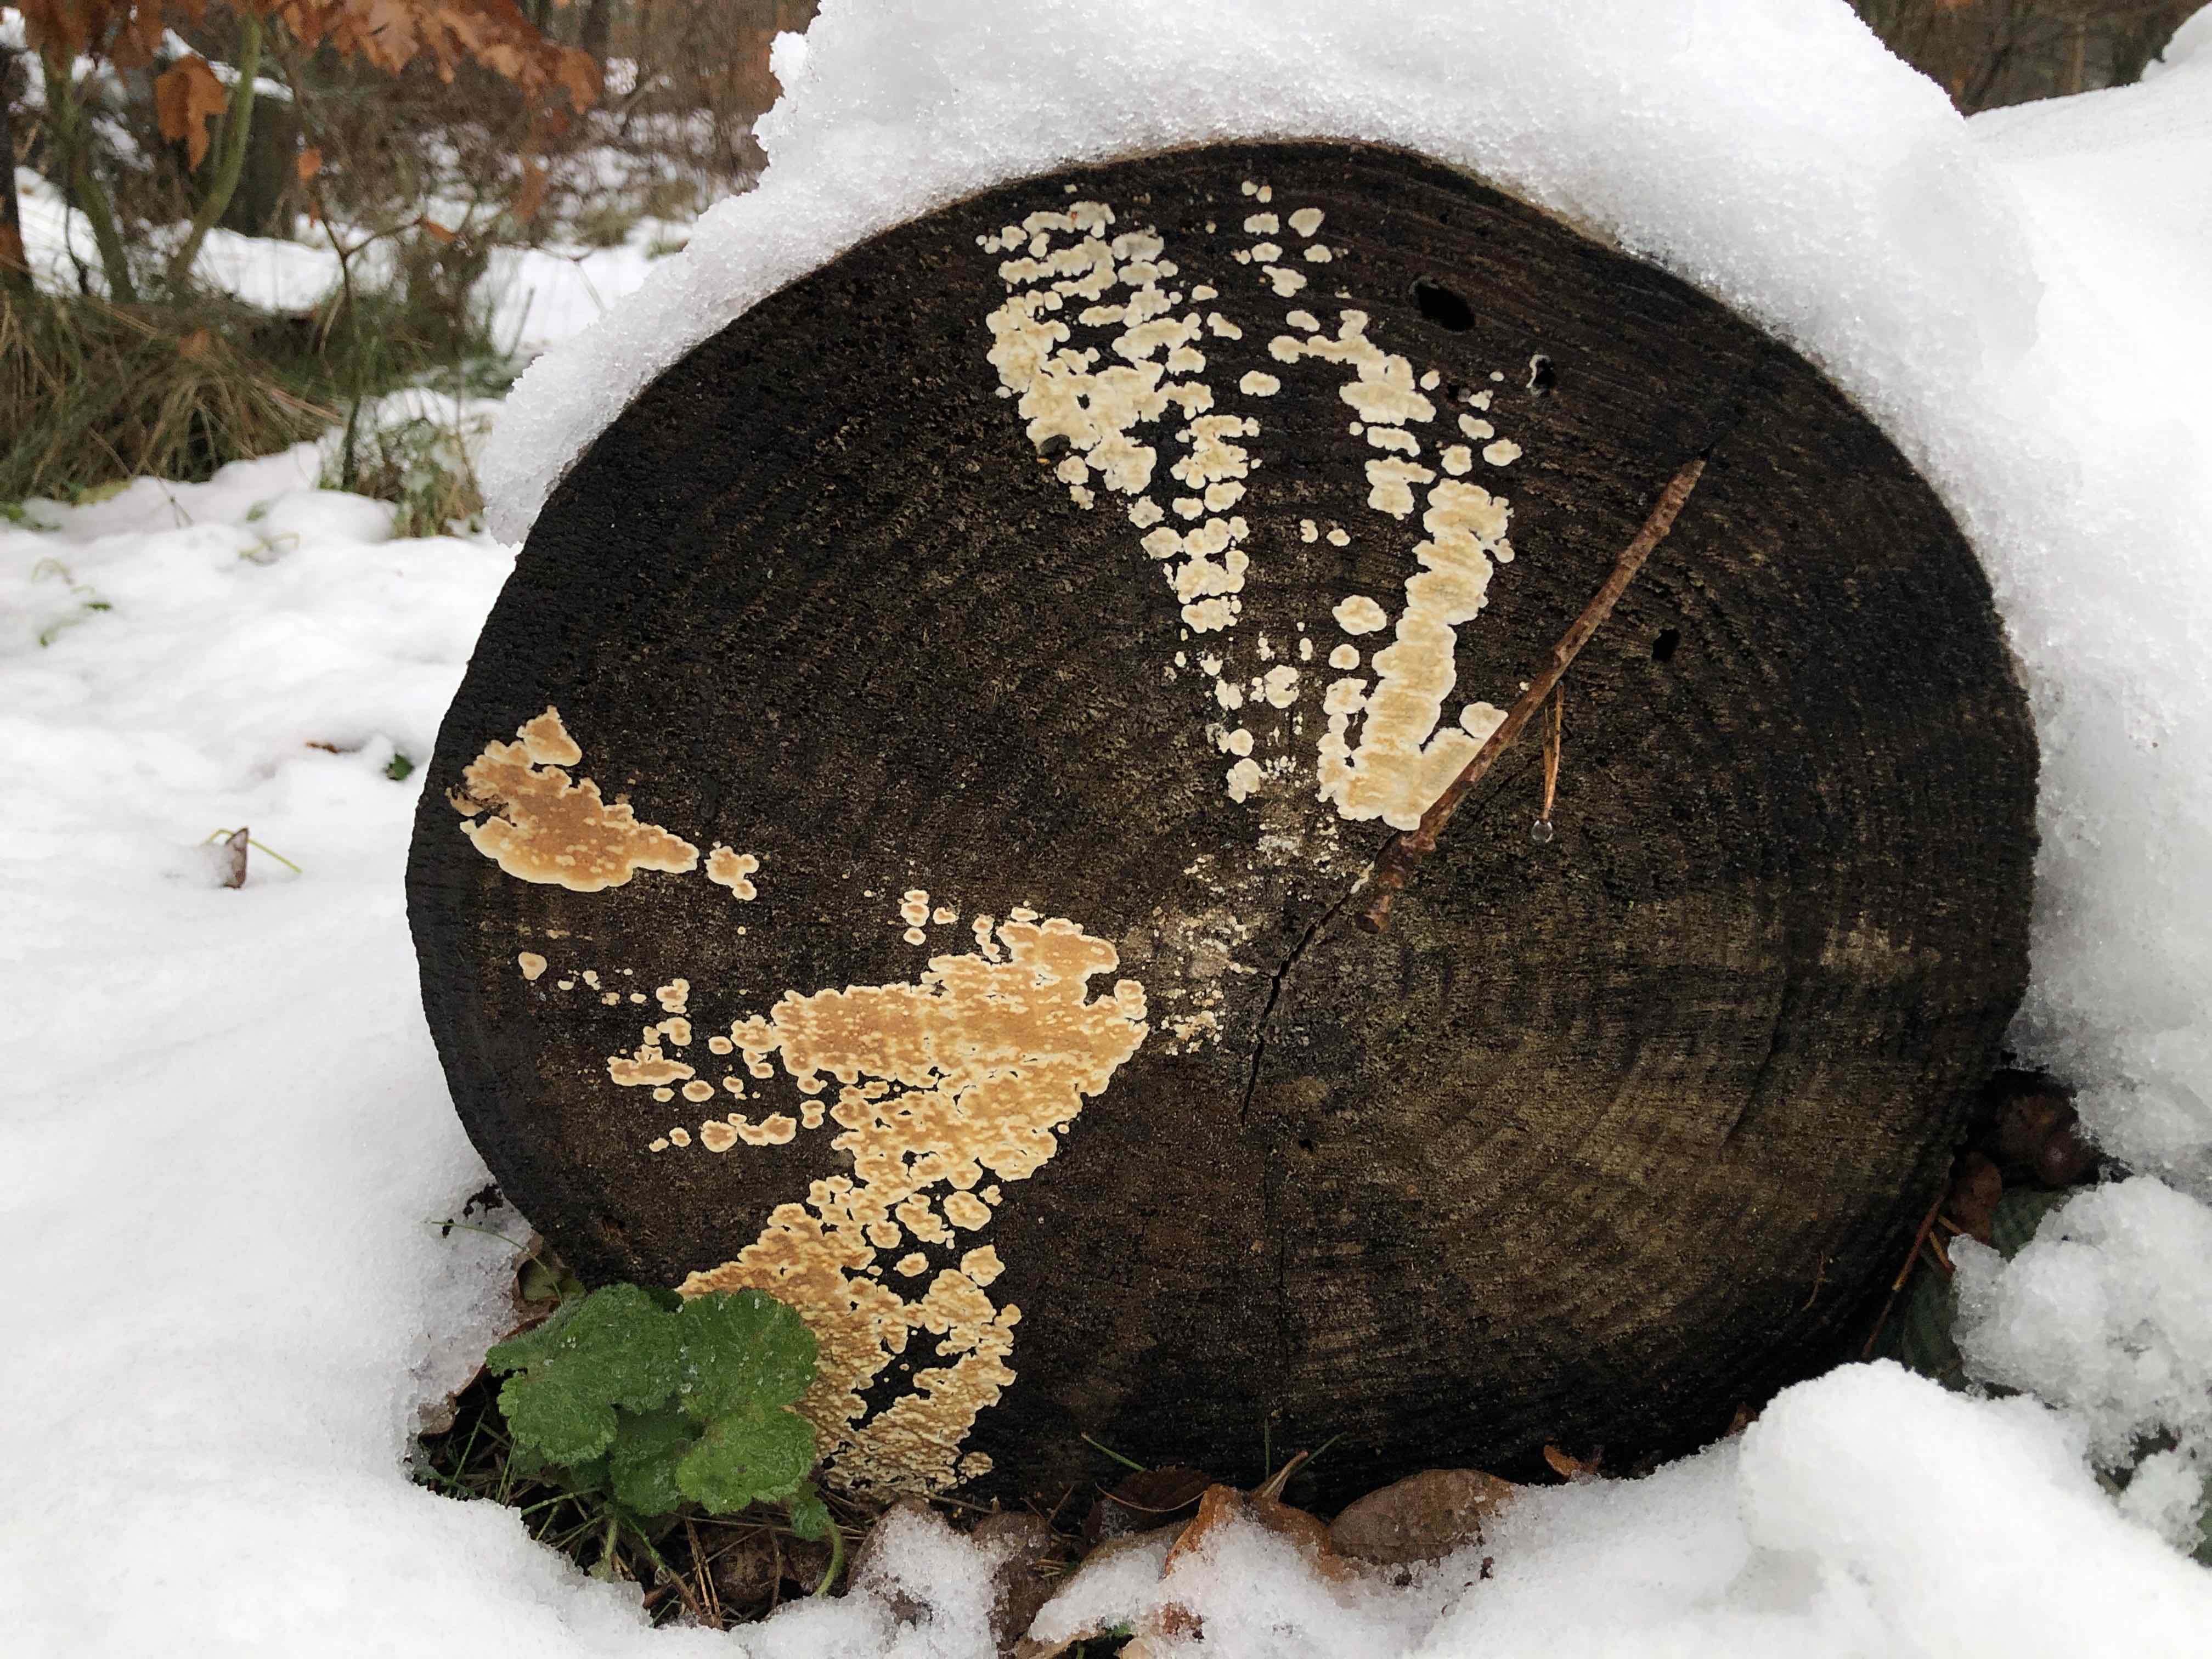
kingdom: Fungi
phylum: Basidiomycota
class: Agaricomycetes
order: Agaricales
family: Physalacriaceae
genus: Cylindrobasidium
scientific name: Cylindrobasidium evolvens
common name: sprækkehinde
